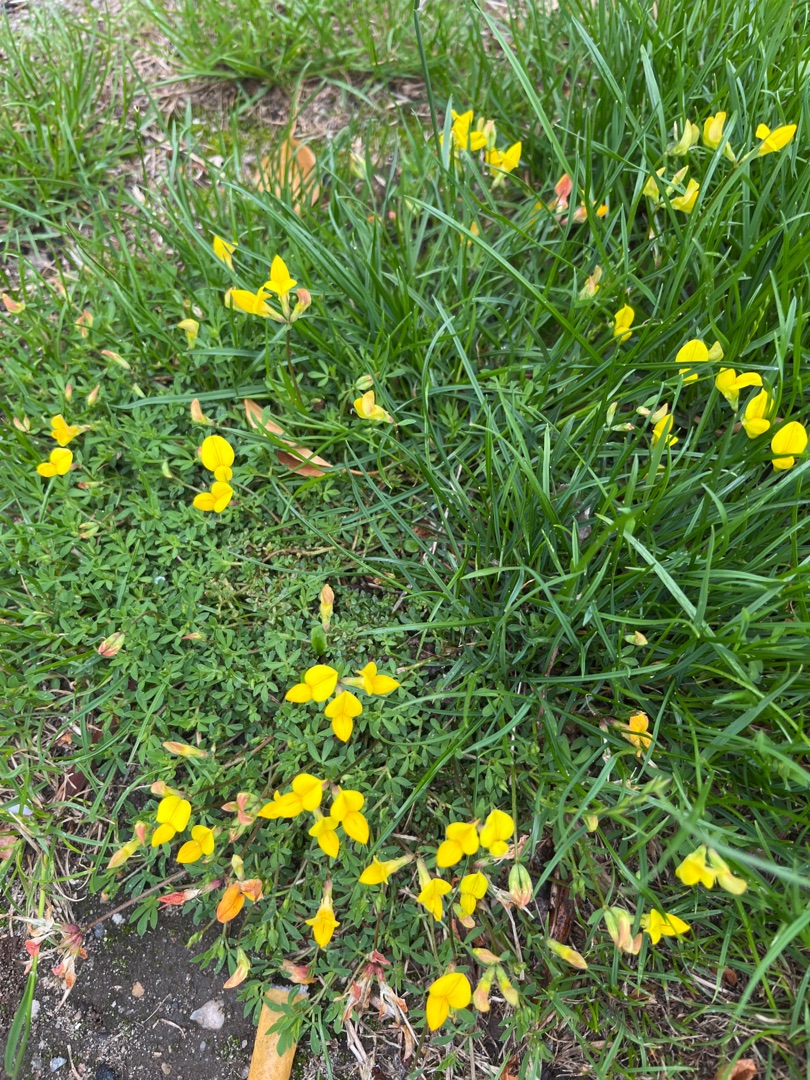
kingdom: Plantae
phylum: Tracheophyta
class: Magnoliopsida
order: Fabales
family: Fabaceae
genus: Lotus
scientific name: Lotus corniculatus
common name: Almindelig kællingetand
